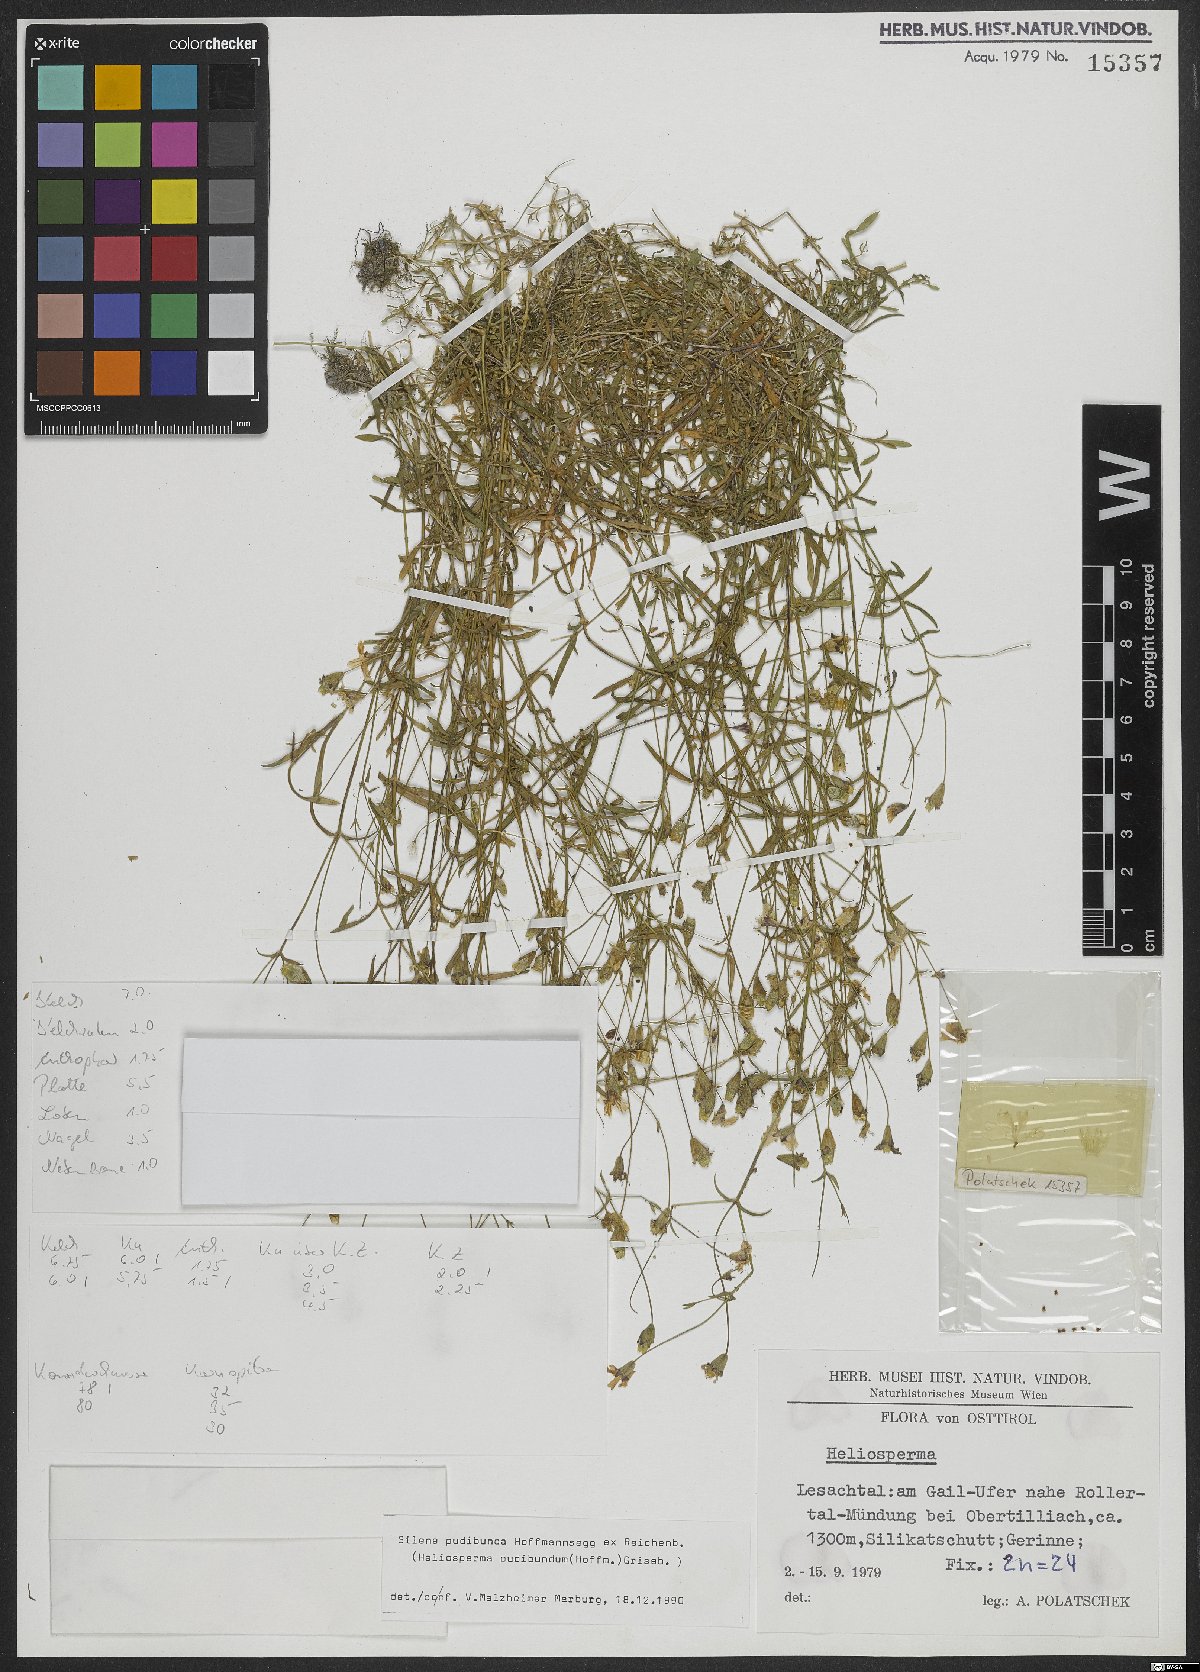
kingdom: Plantae
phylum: Tracheophyta
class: Magnoliopsida
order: Caryophyllales
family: Caryophyllaceae
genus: Heliosperma
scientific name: Heliosperma pudibundum
